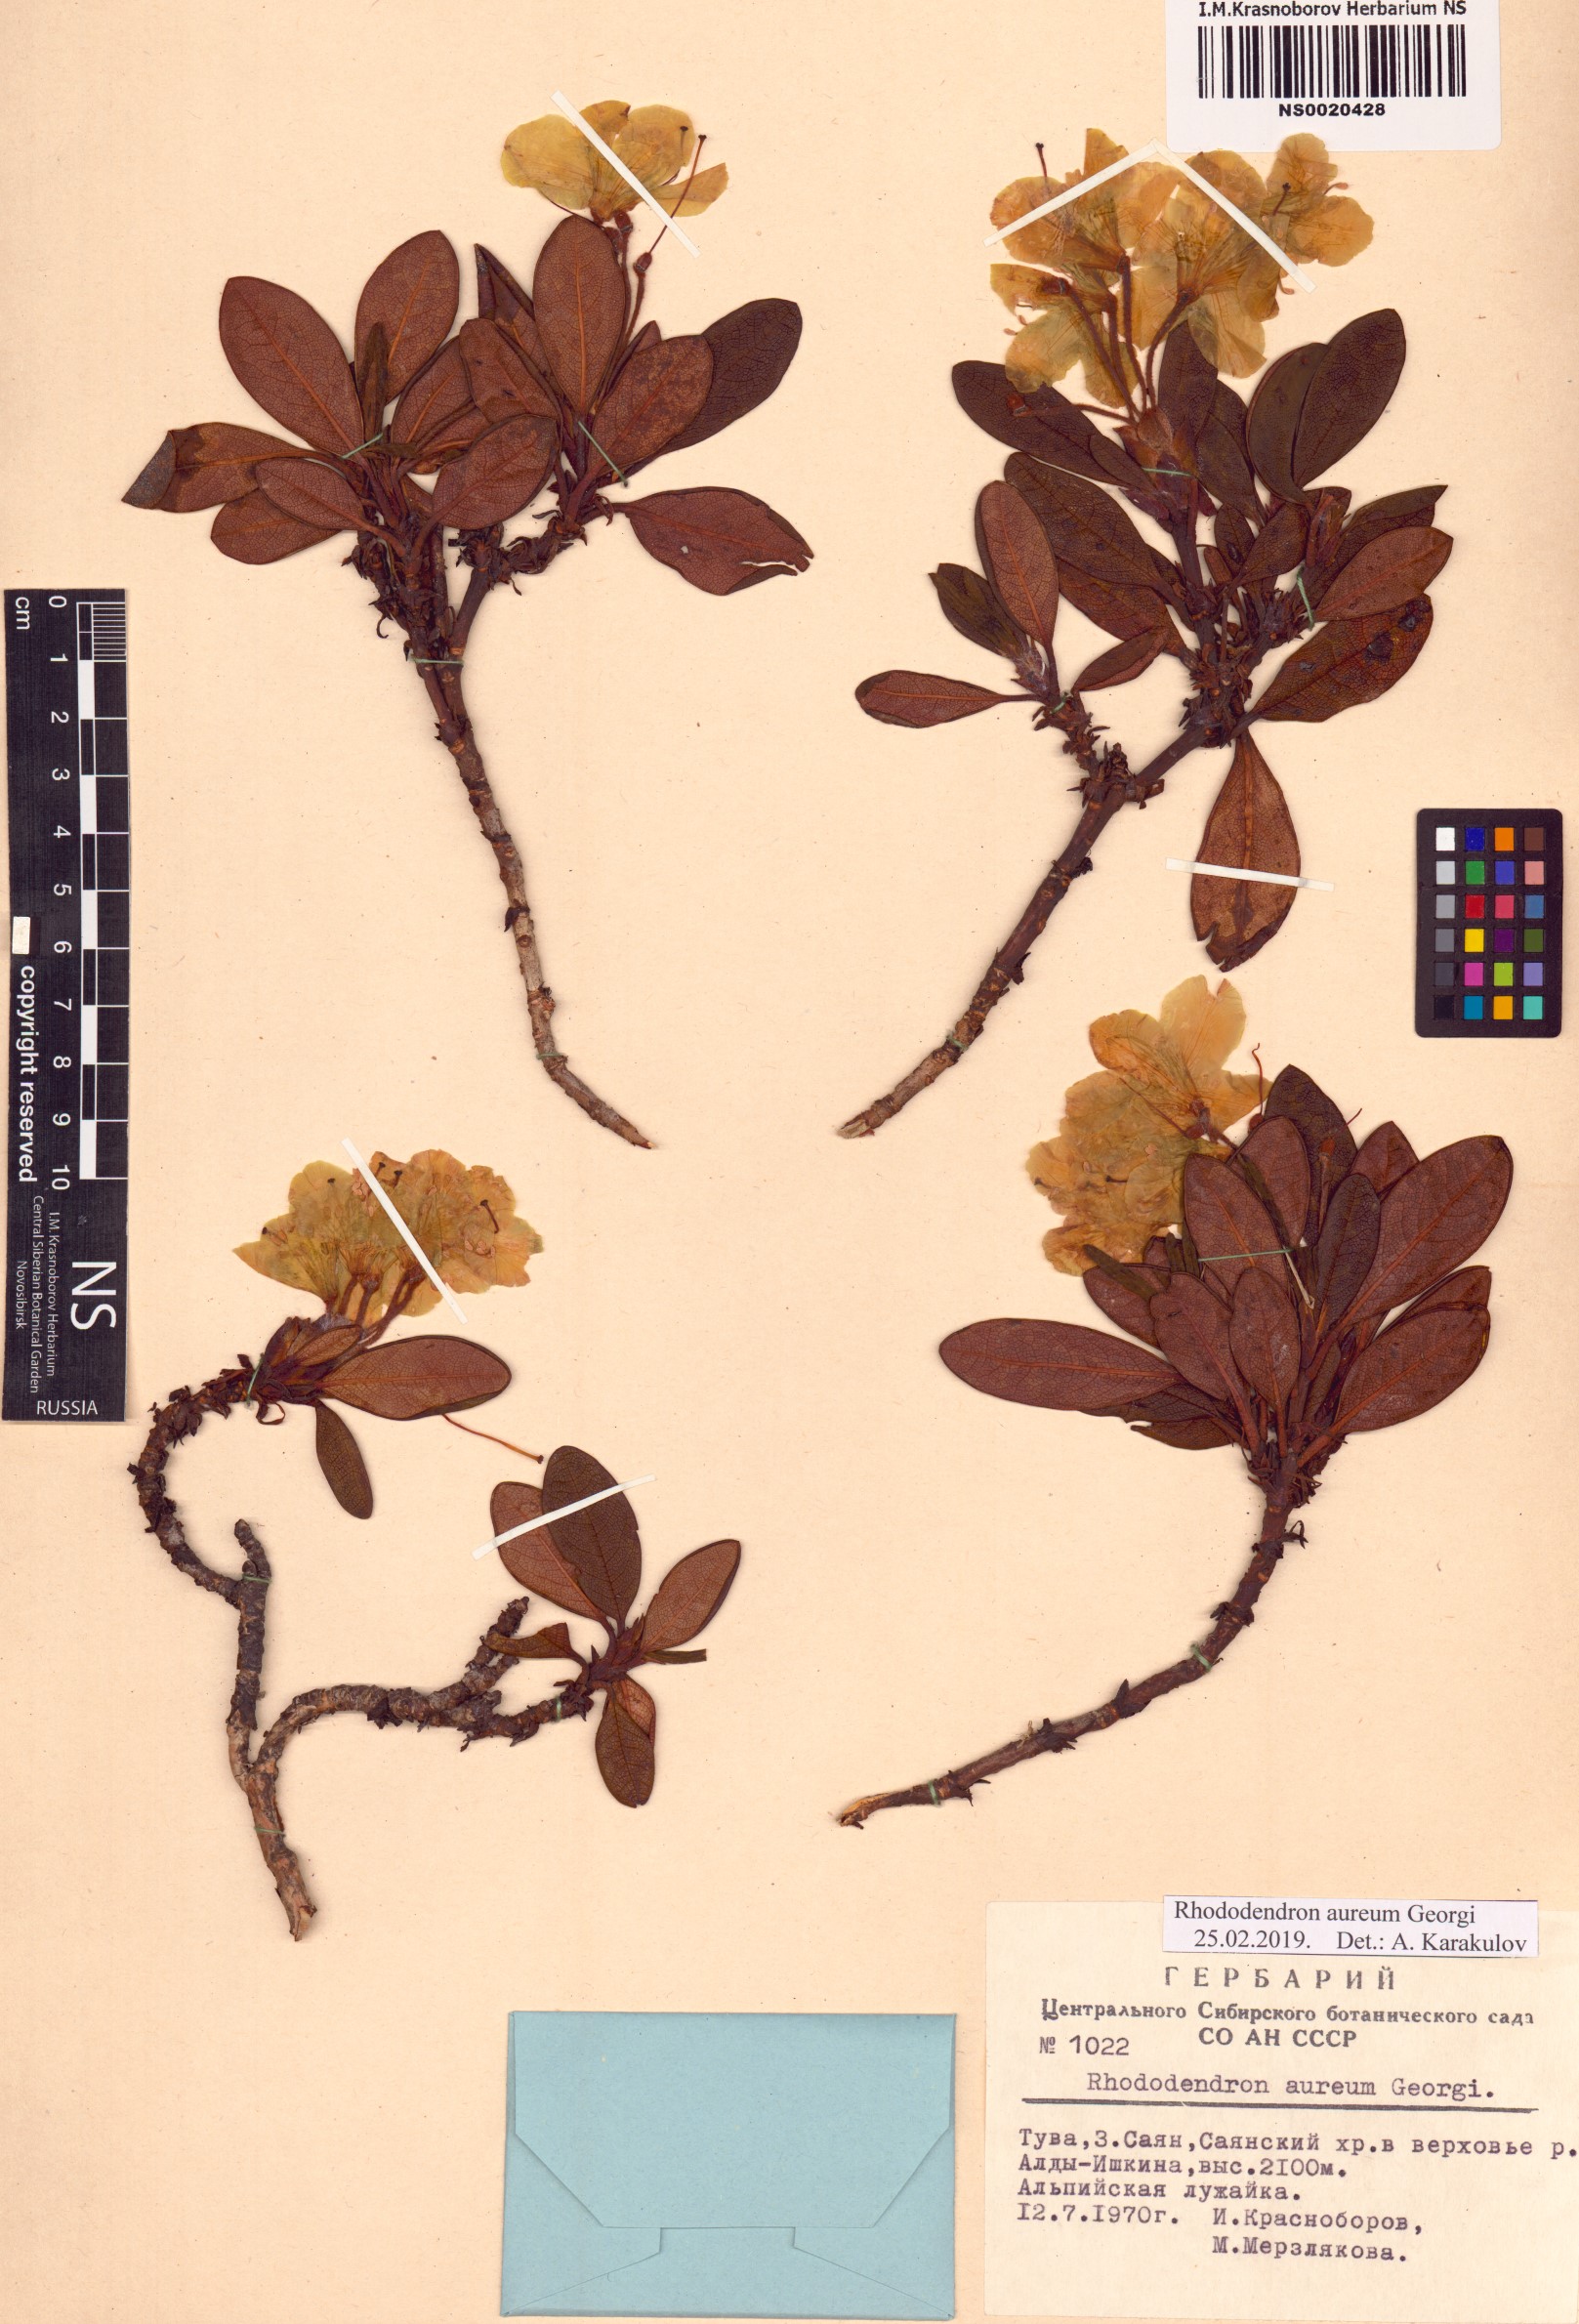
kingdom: Plantae
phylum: Tracheophyta
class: Magnoliopsida
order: Ericales
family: Ericaceae
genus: Rhododendron
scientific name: Rhododendron aureum
